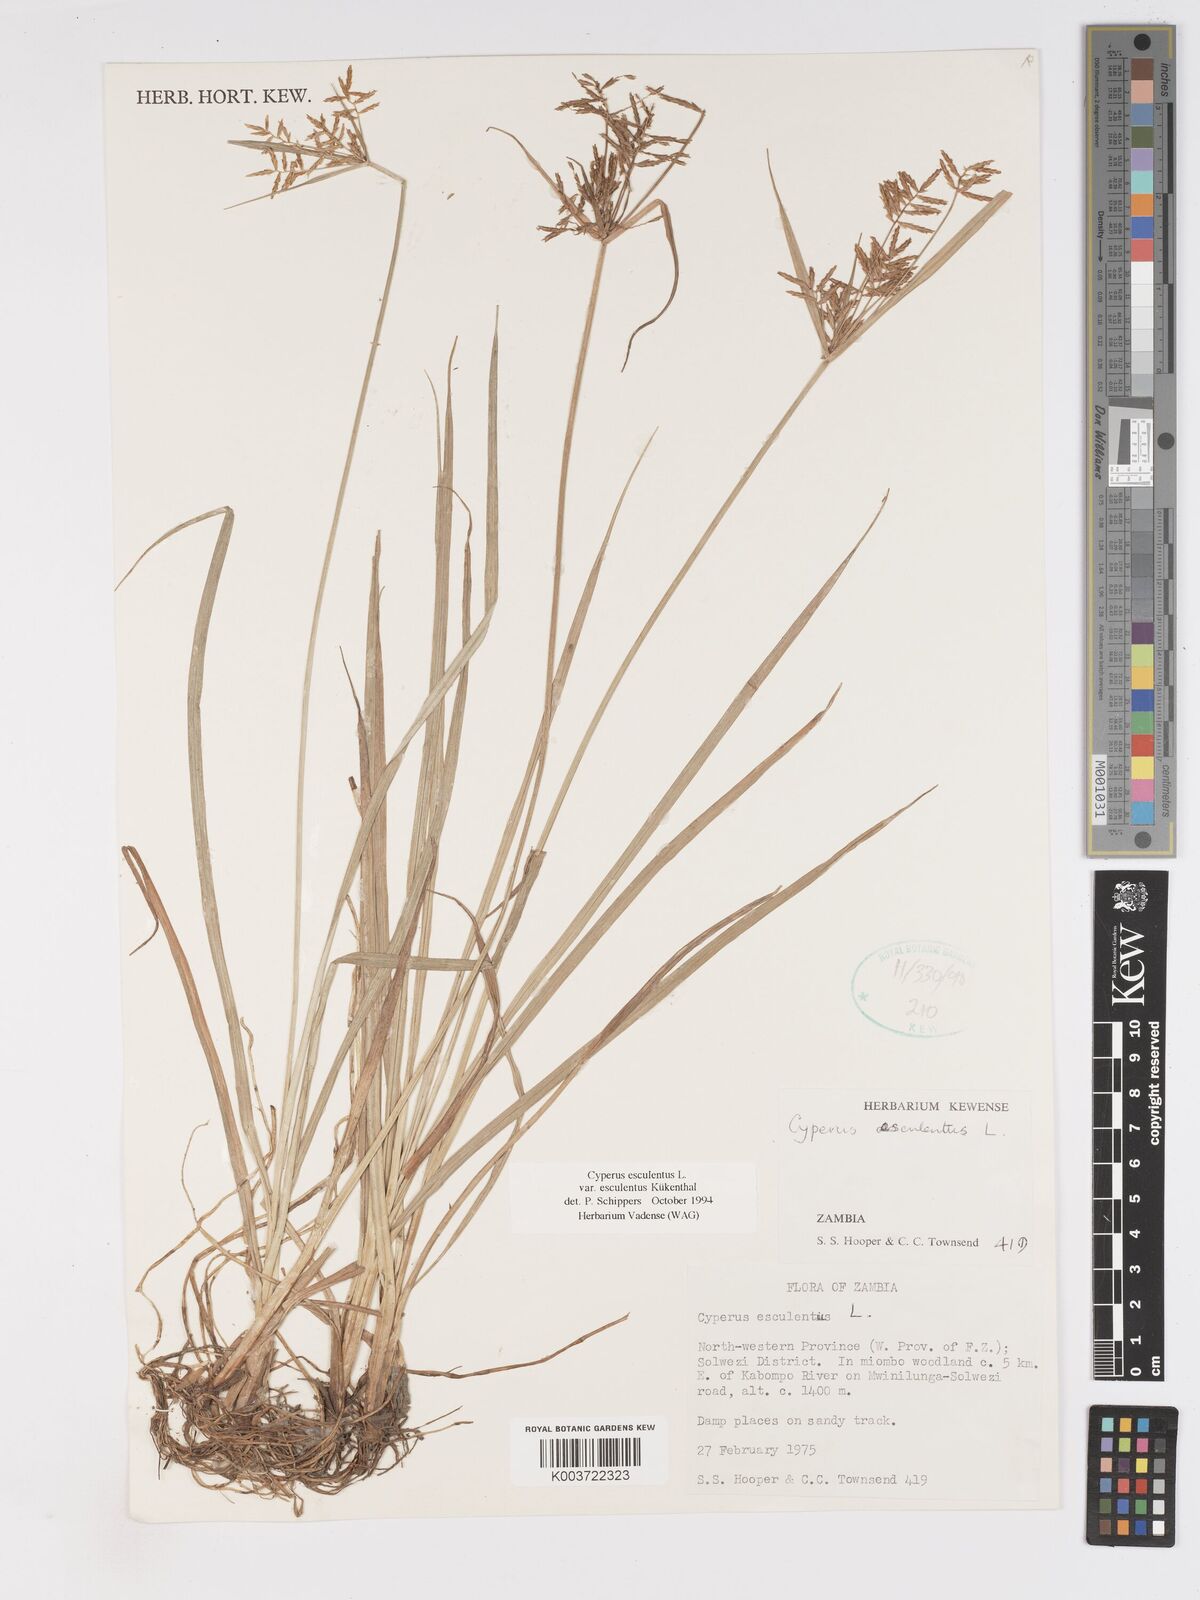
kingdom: Plantae
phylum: Tracheophyta
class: Liliopsida
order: Poales
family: Cyperaceae
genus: Cyperus
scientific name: Cyperus esculentus
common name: Yellow nutsedge
